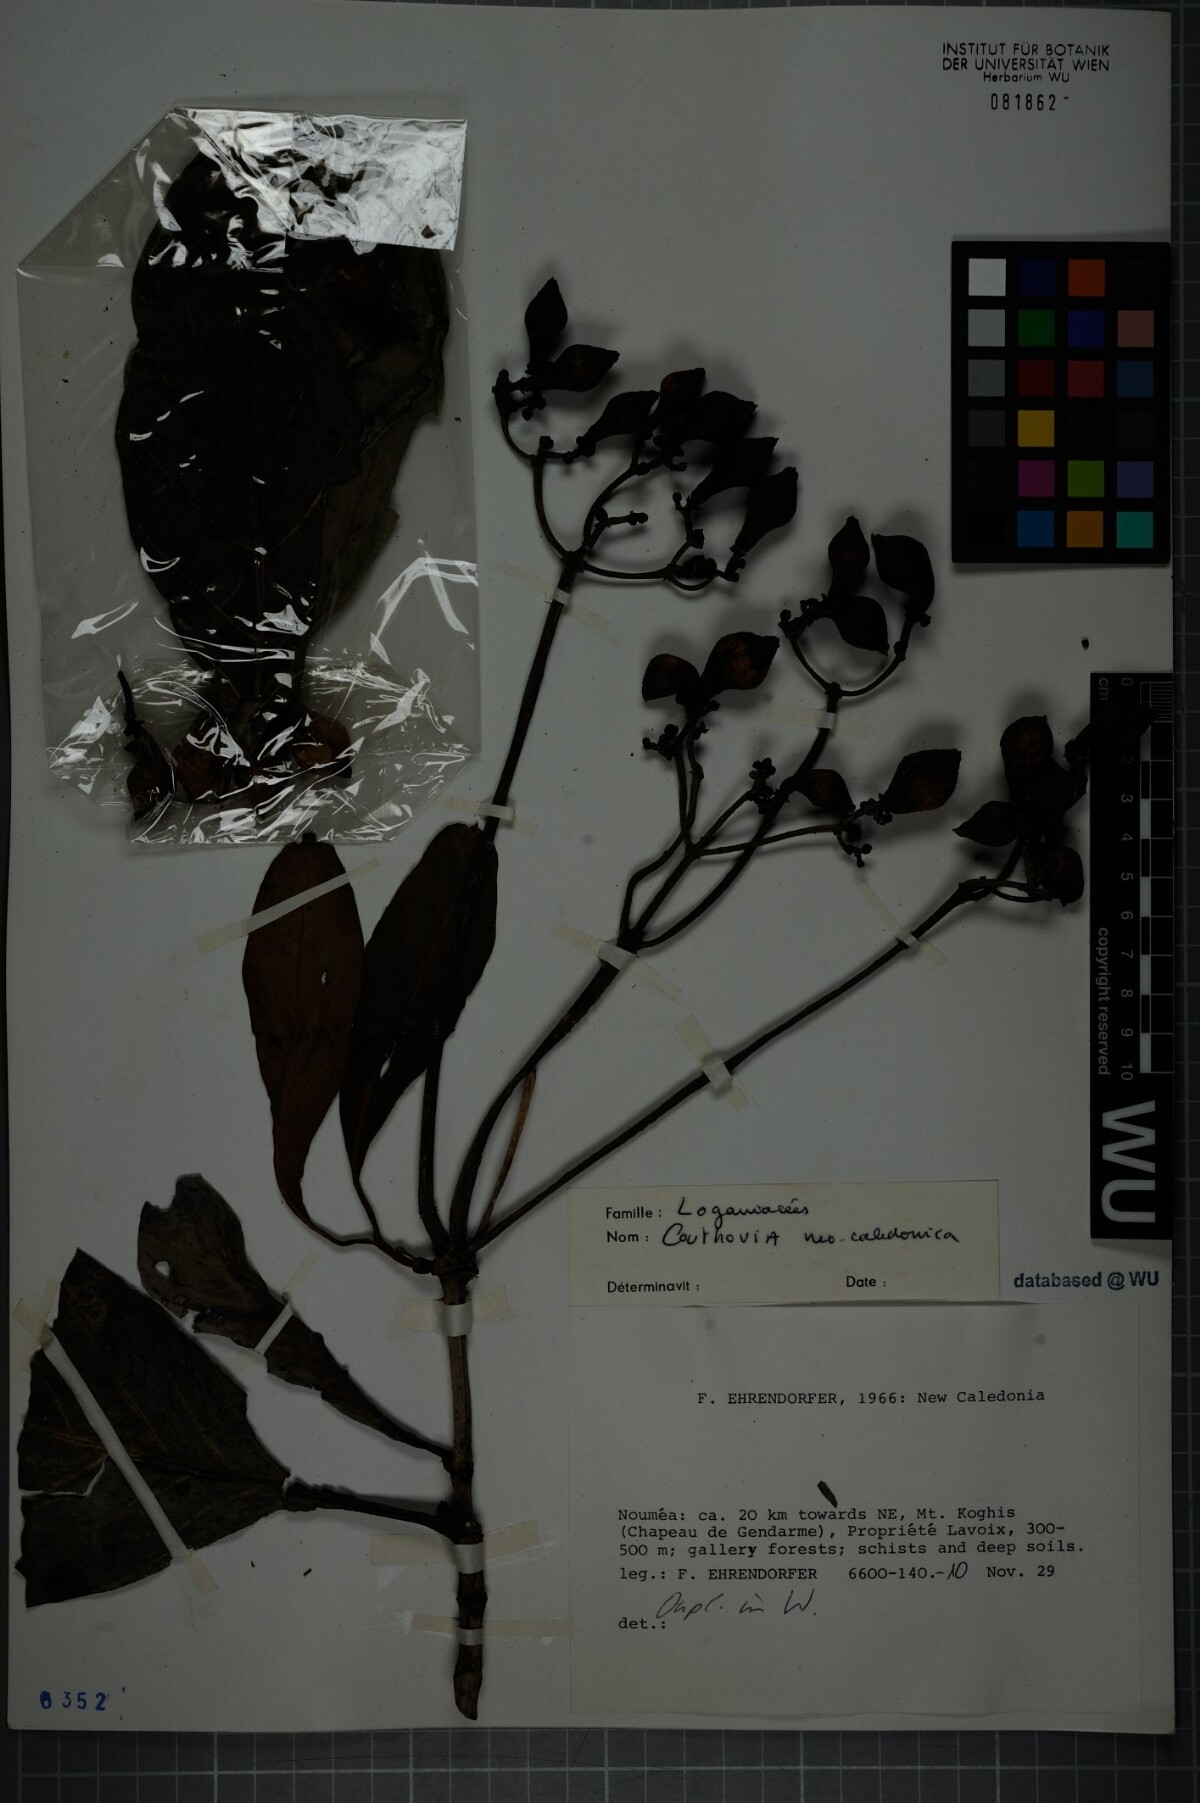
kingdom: Plantae
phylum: Tracheophyta
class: Magnoliopsida
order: Gentianales
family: Loganiaceae
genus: Neuburgia
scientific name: Neuburgia novocaledonica
